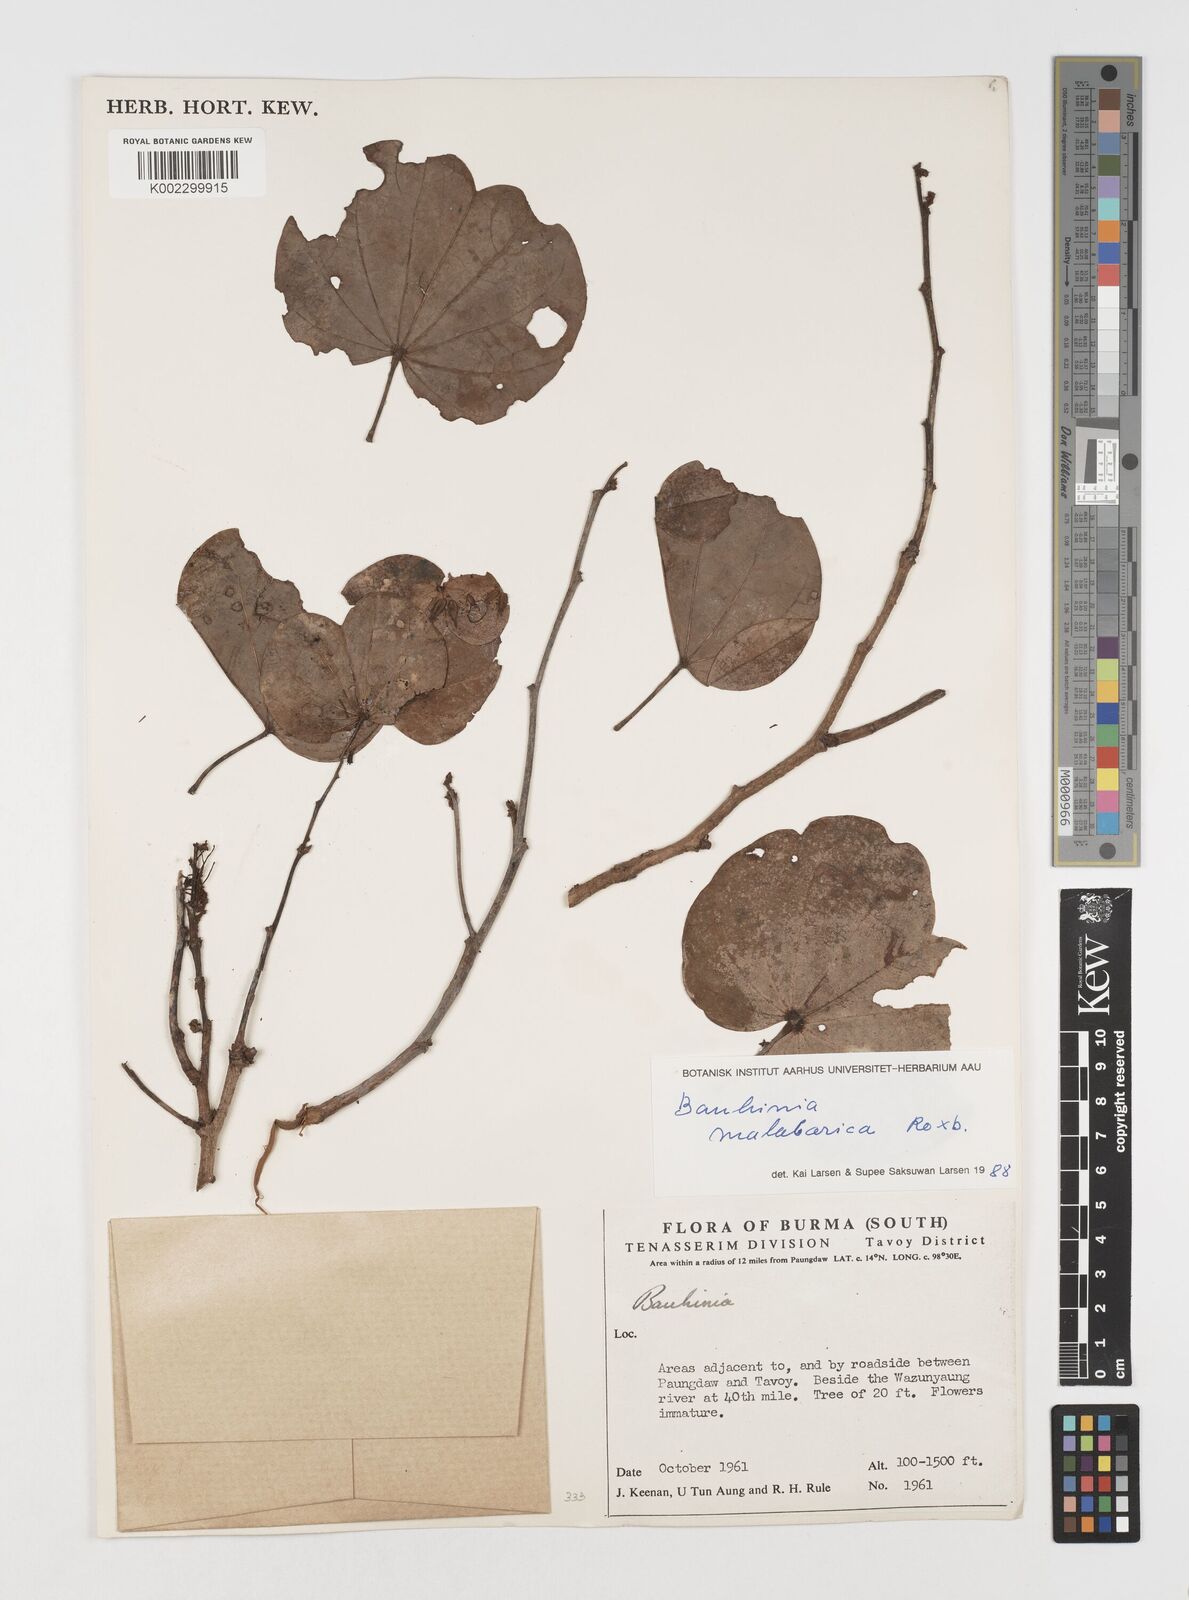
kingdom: Plantae
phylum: Tracheophyta
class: Magnoliopsida
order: Fabales
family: Fabaceae
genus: Piliostigma
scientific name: Piliostigma malabaricum
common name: Malabar bauhinia
